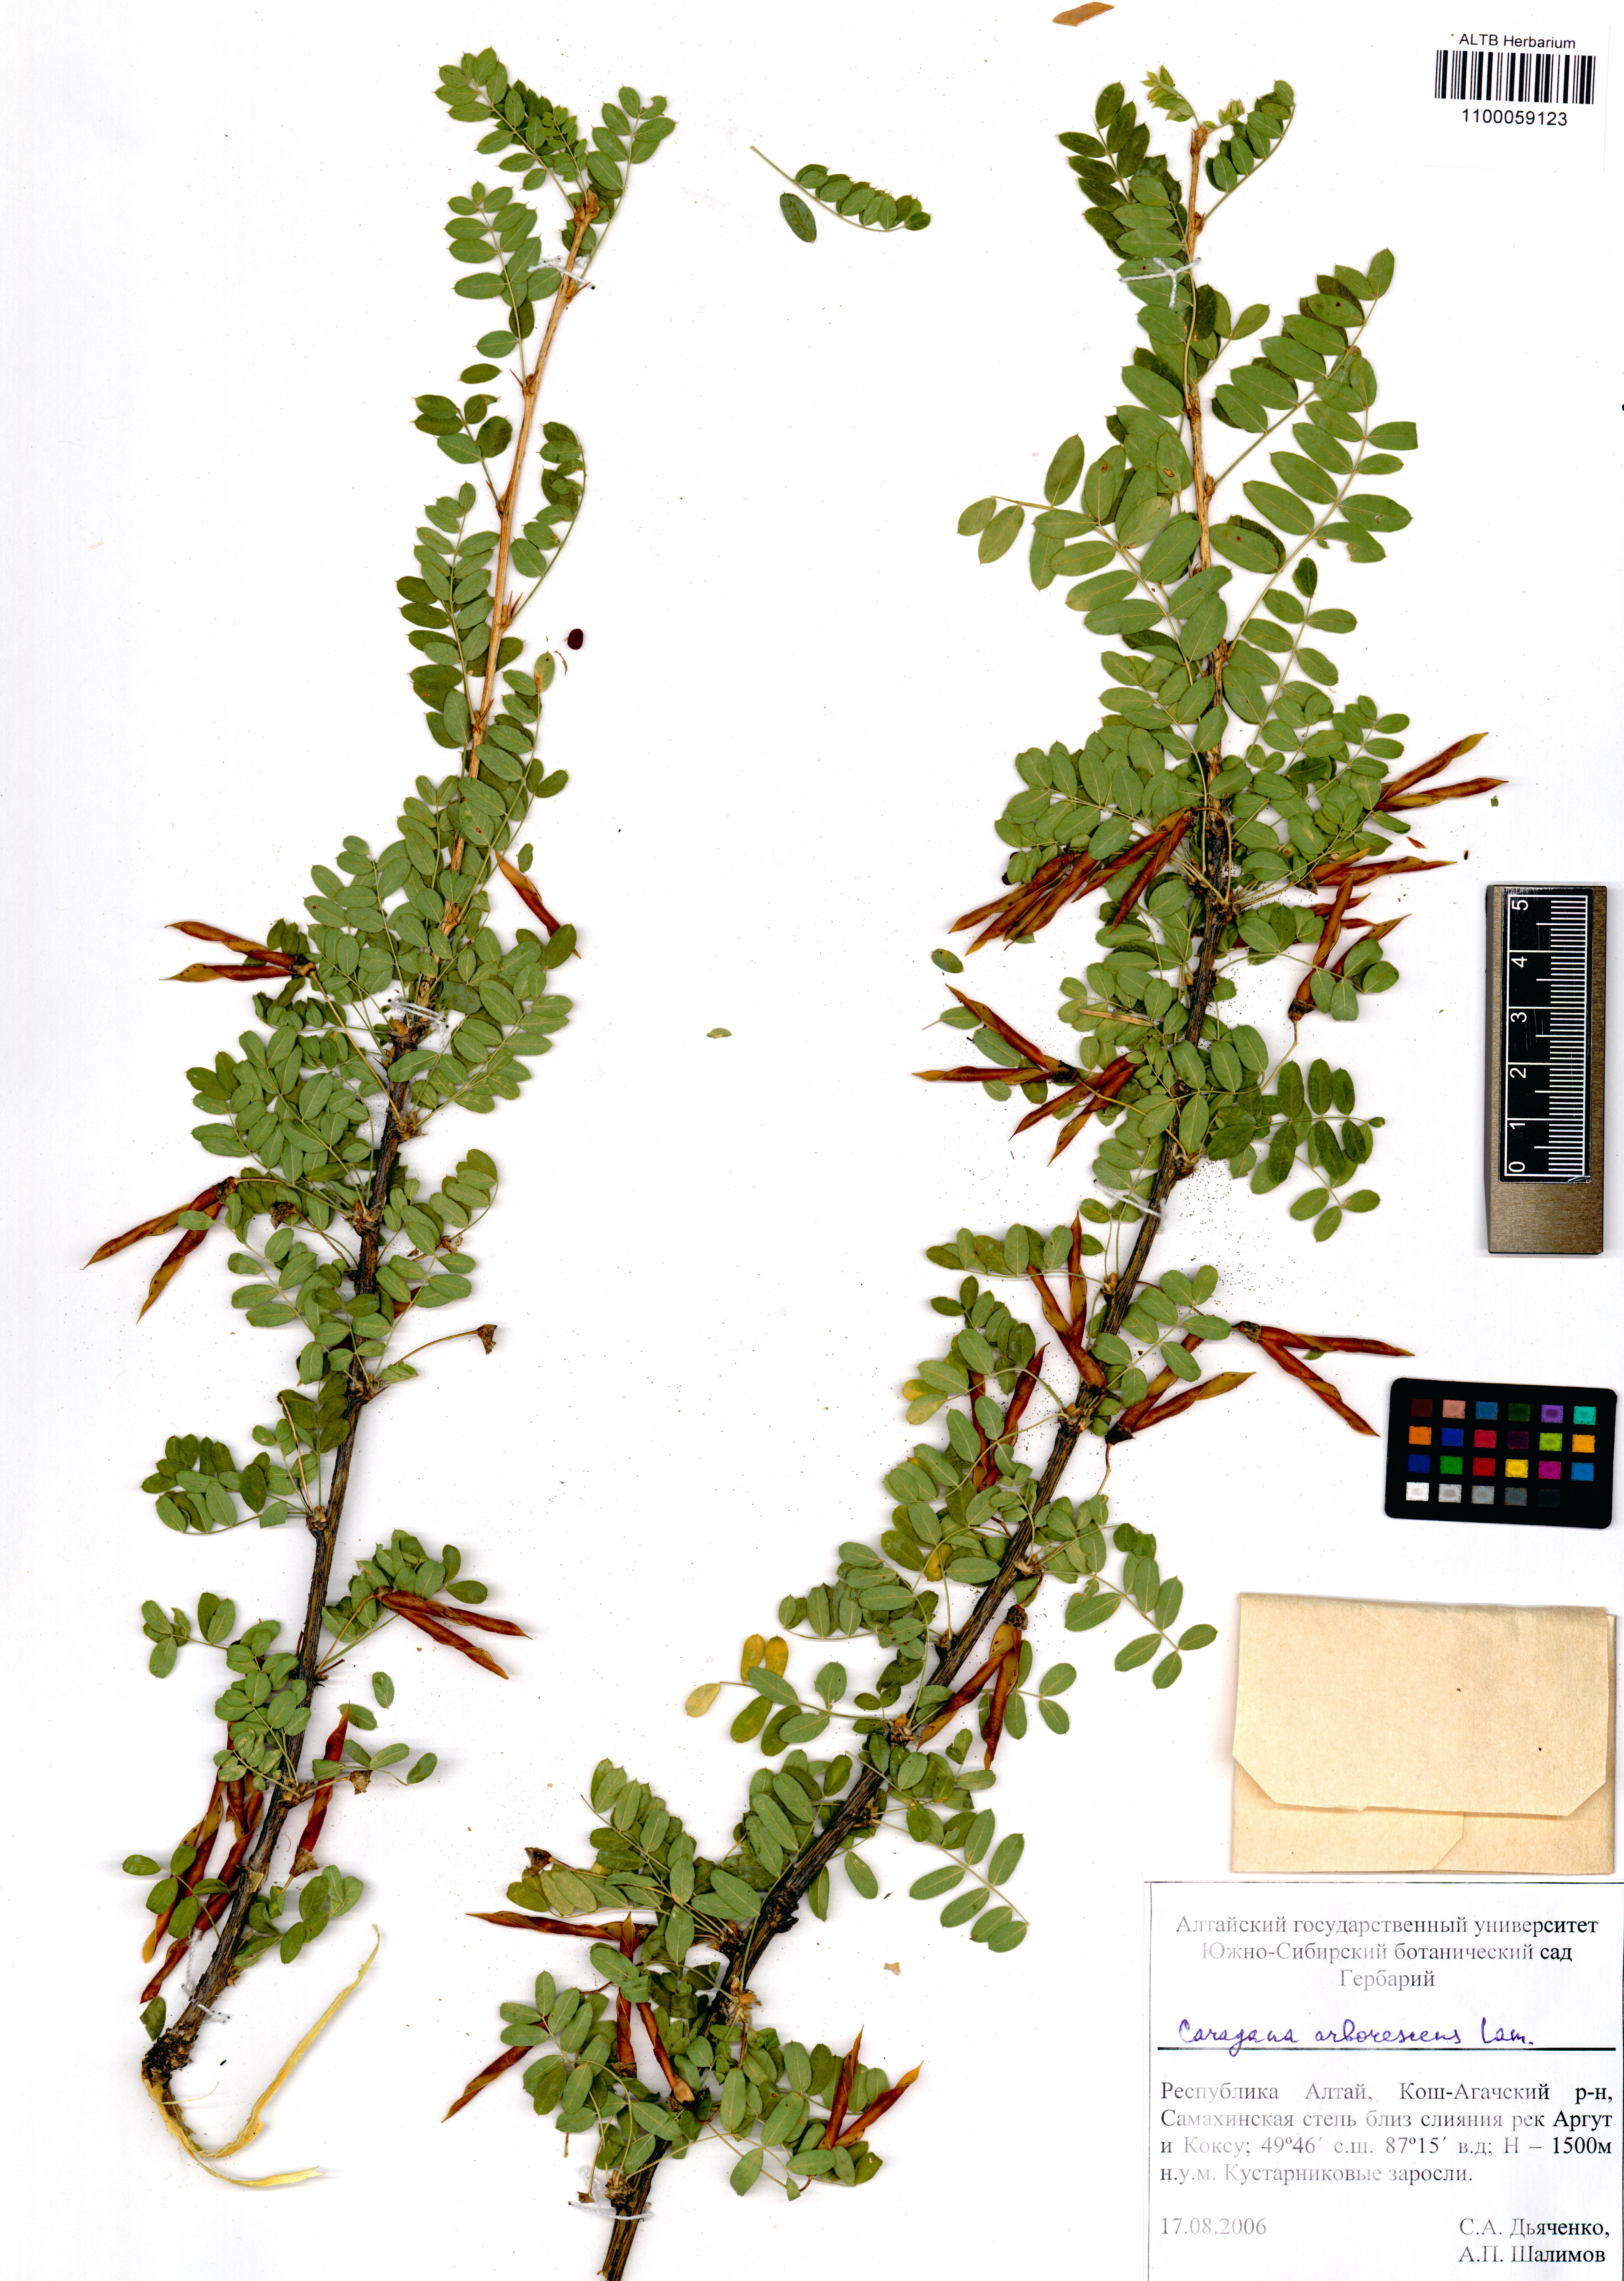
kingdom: Plantae
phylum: Tracheophyta
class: Magnoliopsida
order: Fabales
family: Fabaceae
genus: Caragana
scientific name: Caragana arborescens
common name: Siberian peashrub
